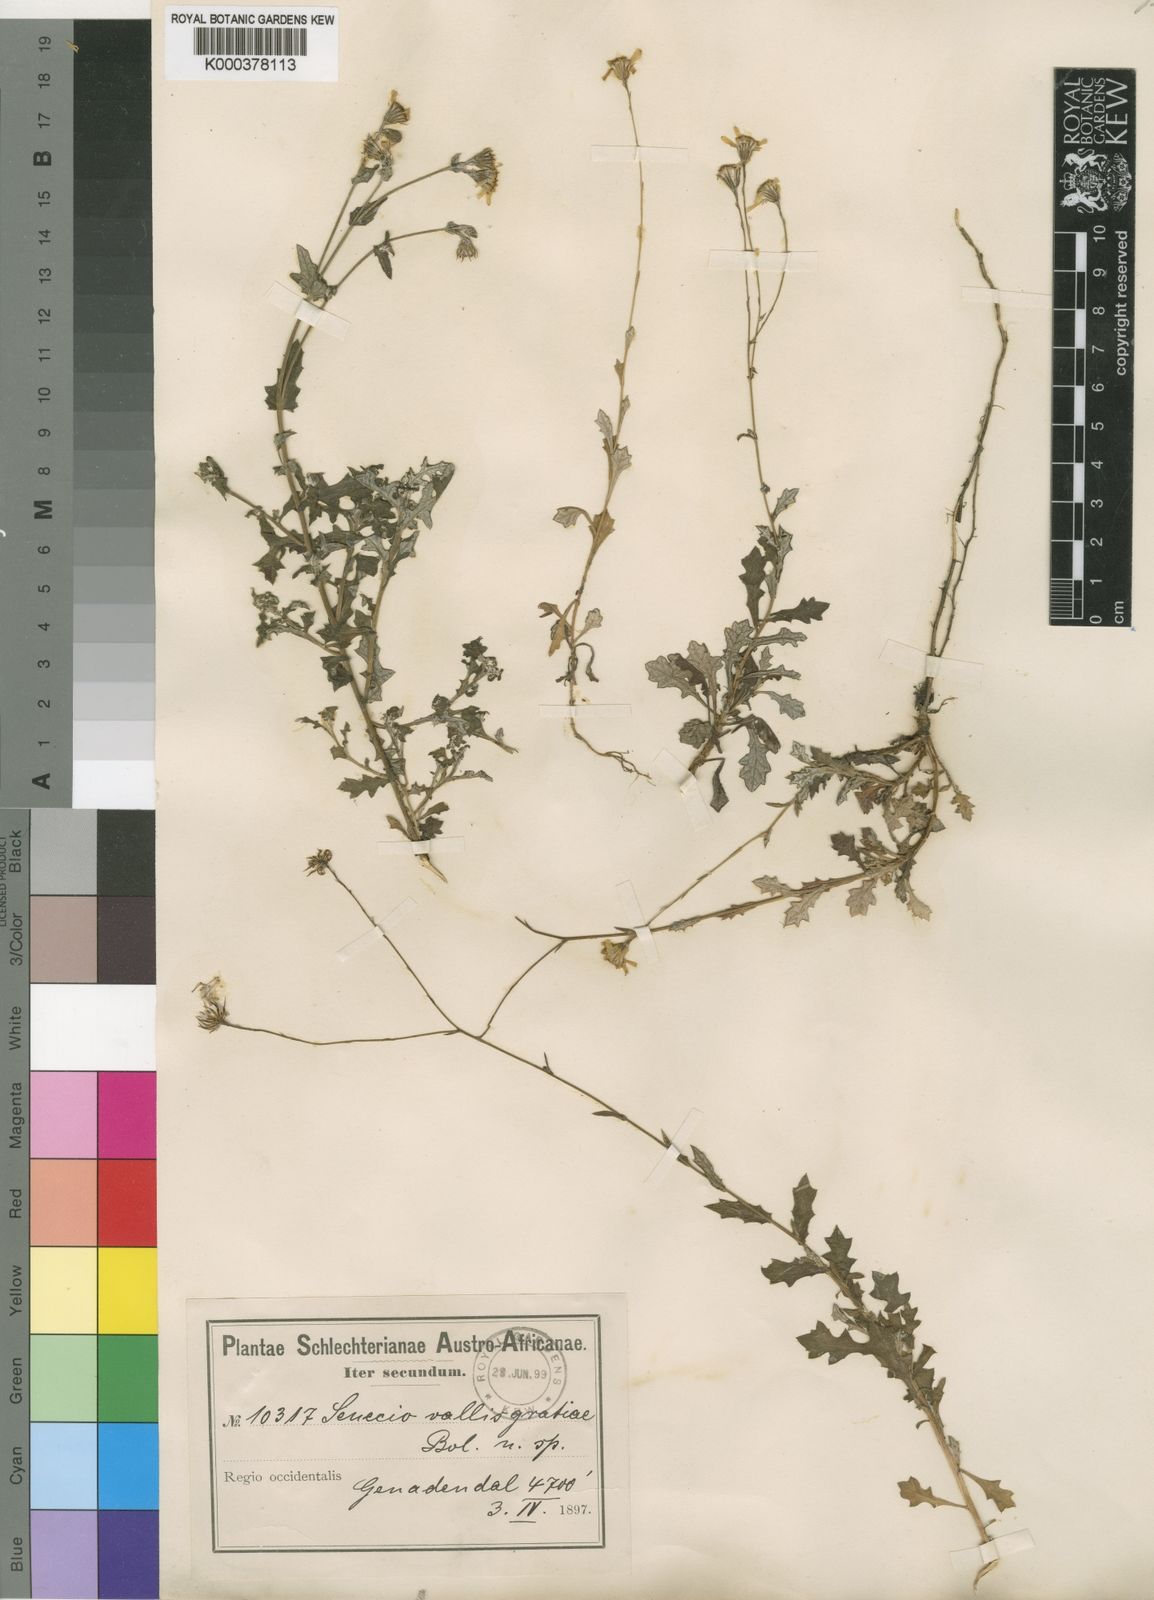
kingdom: Plantae
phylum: Tracheophyta
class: Magnoliopsida
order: Asterales
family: Asteraceae
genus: Senecio
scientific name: Senecio
